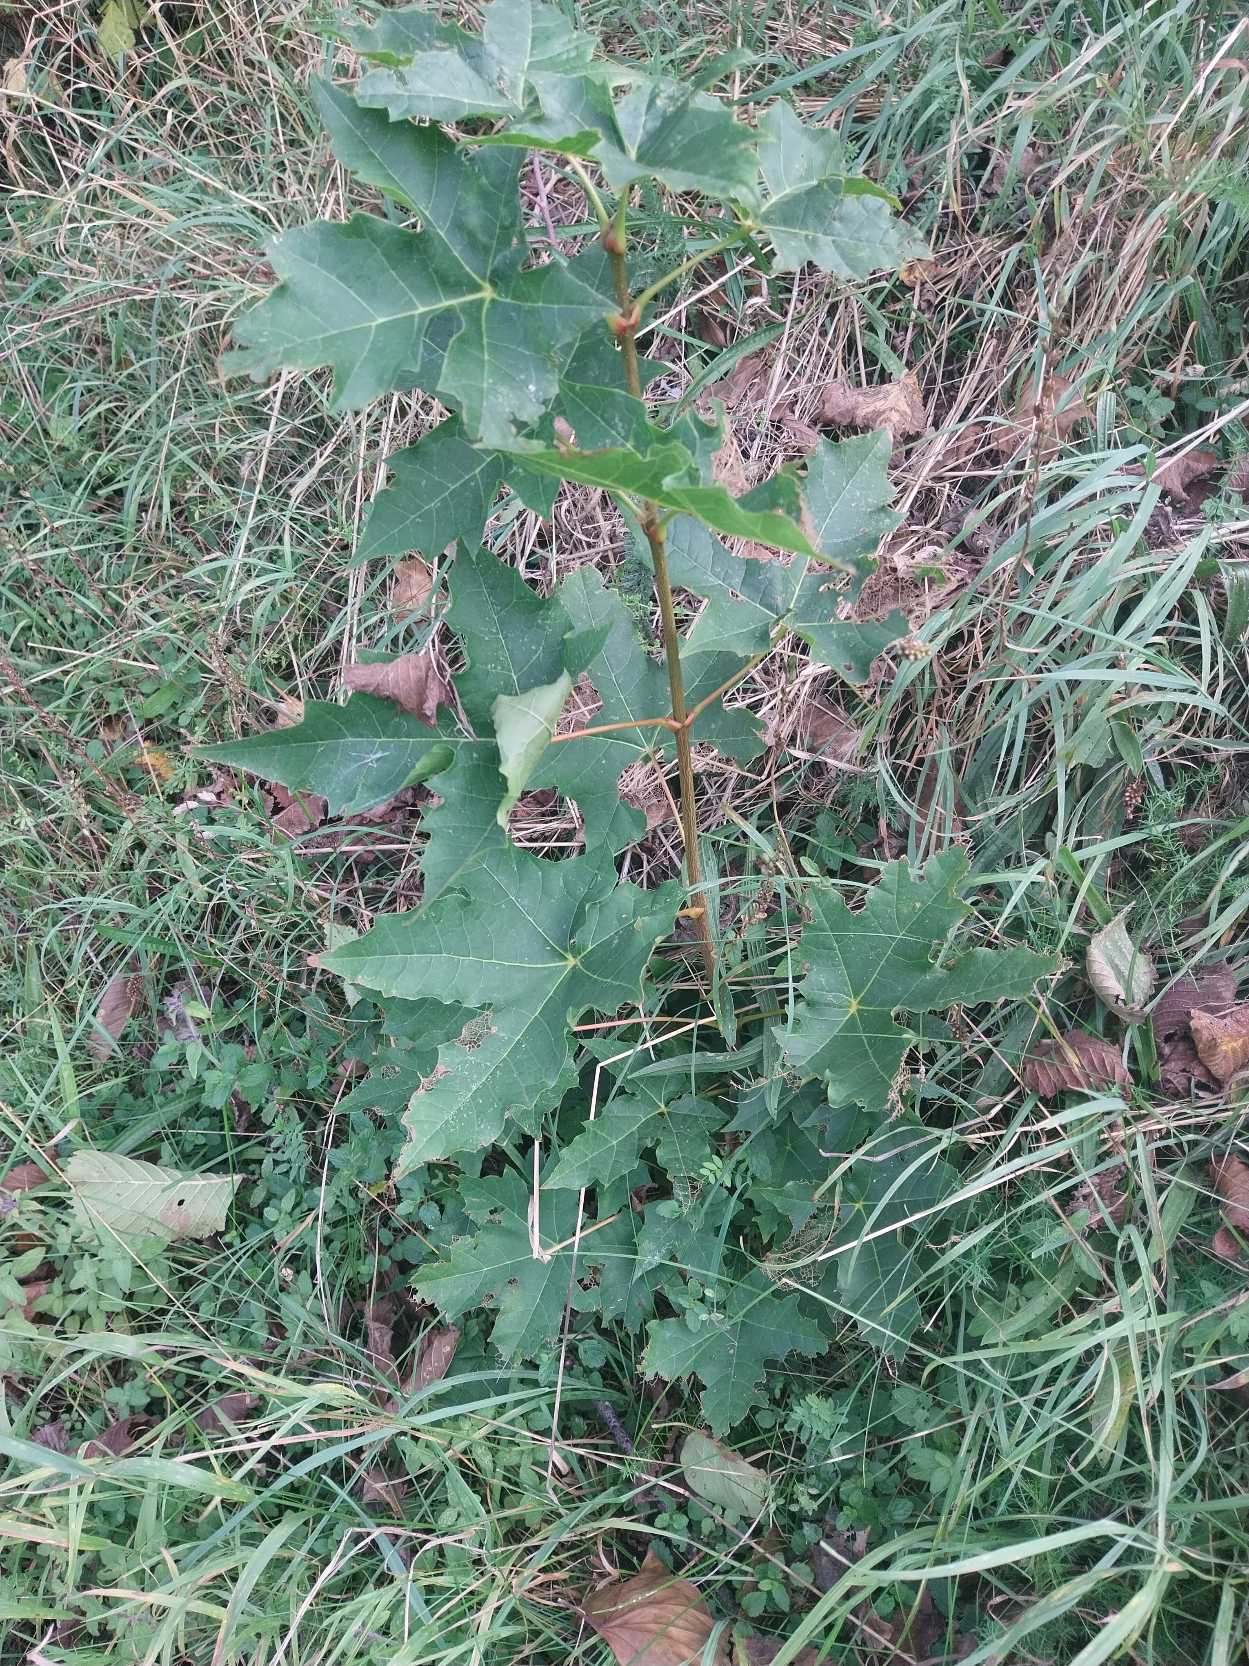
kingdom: Plantae
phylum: Tracheophyta
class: Magnoliopsida
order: Sapindales
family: Sapindaceae
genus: Acer
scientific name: Acer pseudoplatanus
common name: Ahorn
